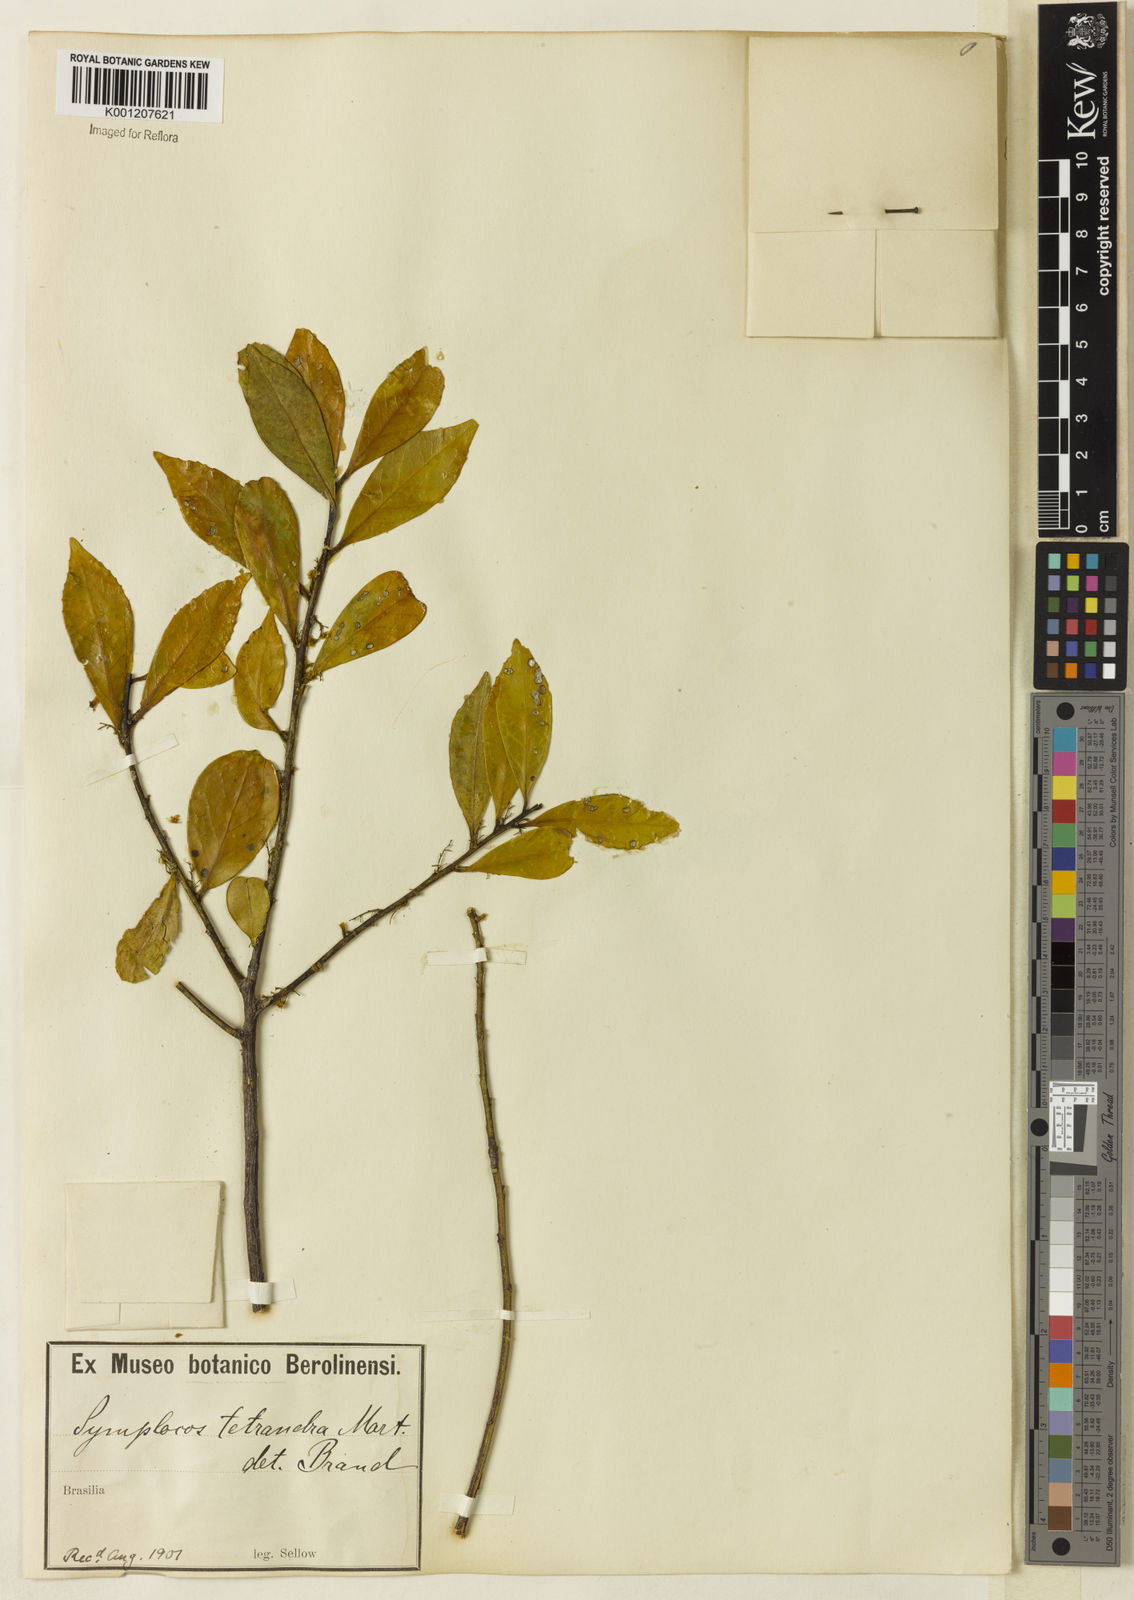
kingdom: Plantae
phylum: Tracheophyta
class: Magnoliopsida
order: Ericales
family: Symplocaceae
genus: Symplocos
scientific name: Symplocos tetrandra
